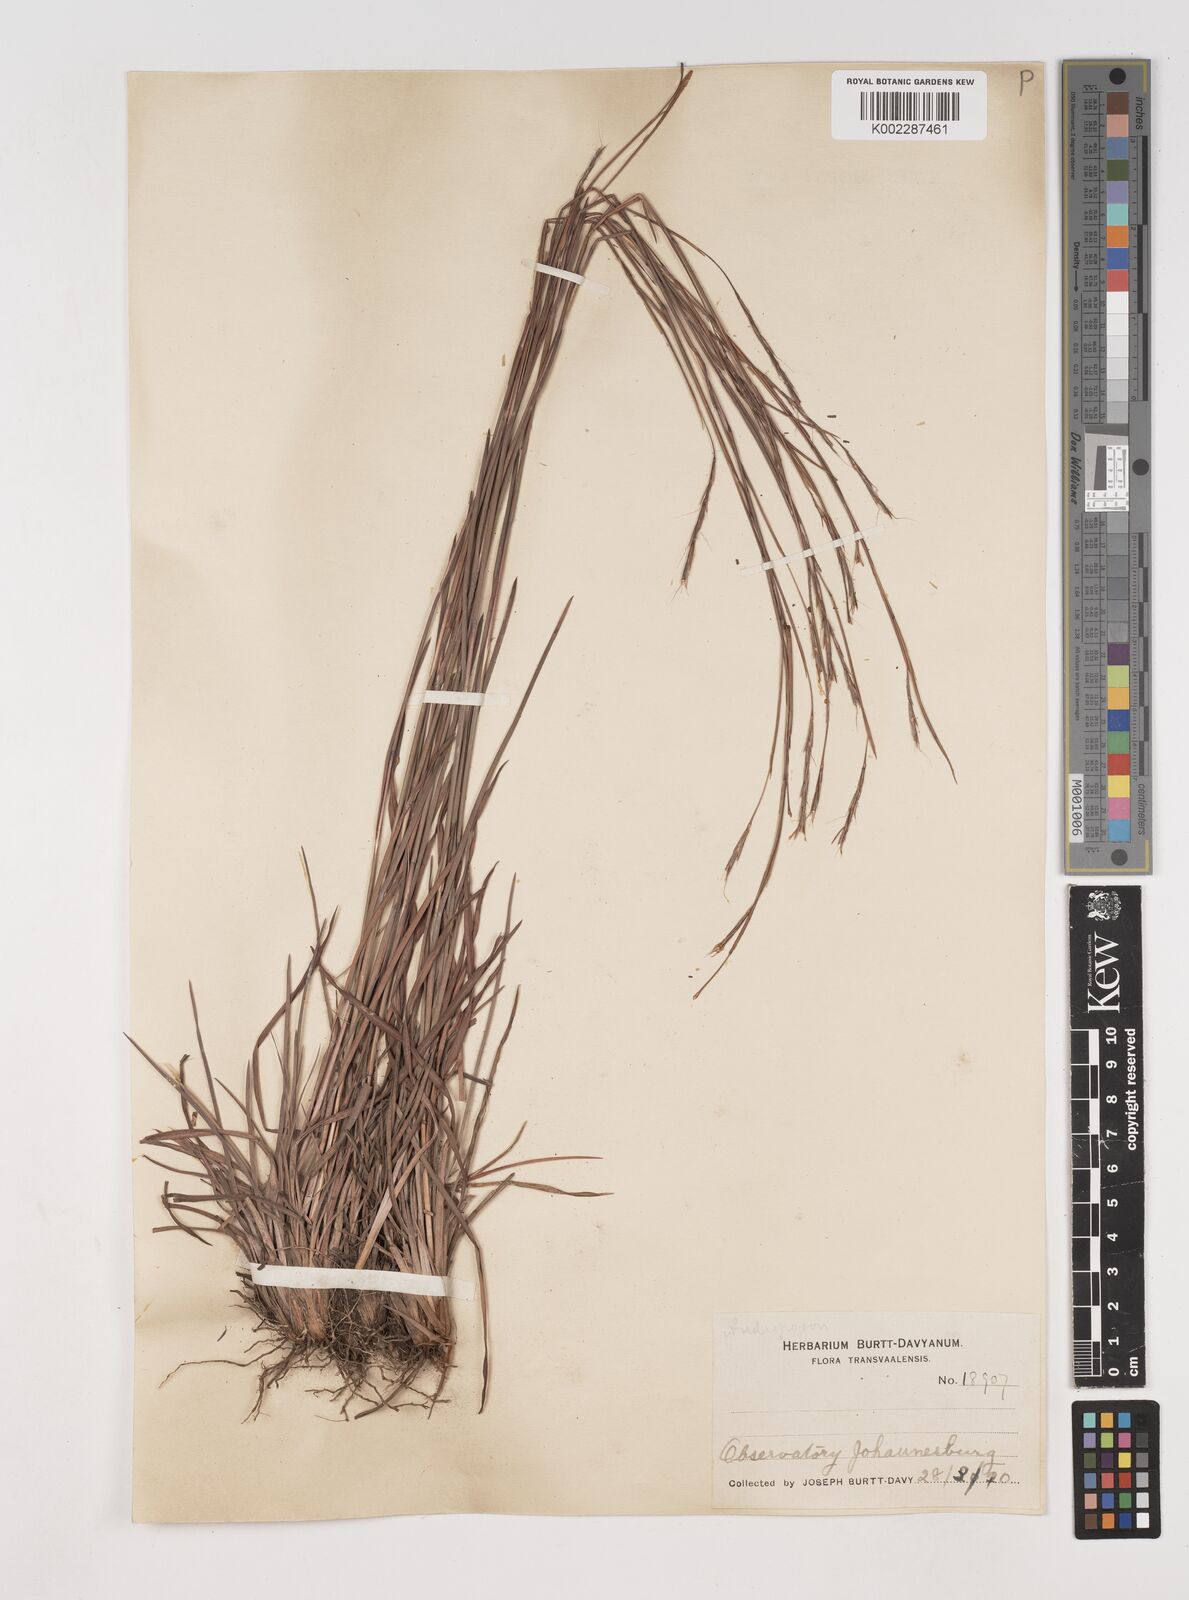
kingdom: Plantae
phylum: Tracheophyta
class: Liliopsida
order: Poales
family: Poaceae
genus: Schizachyrium
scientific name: Schizachyrium sanguineum
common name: Crimson bluestem
